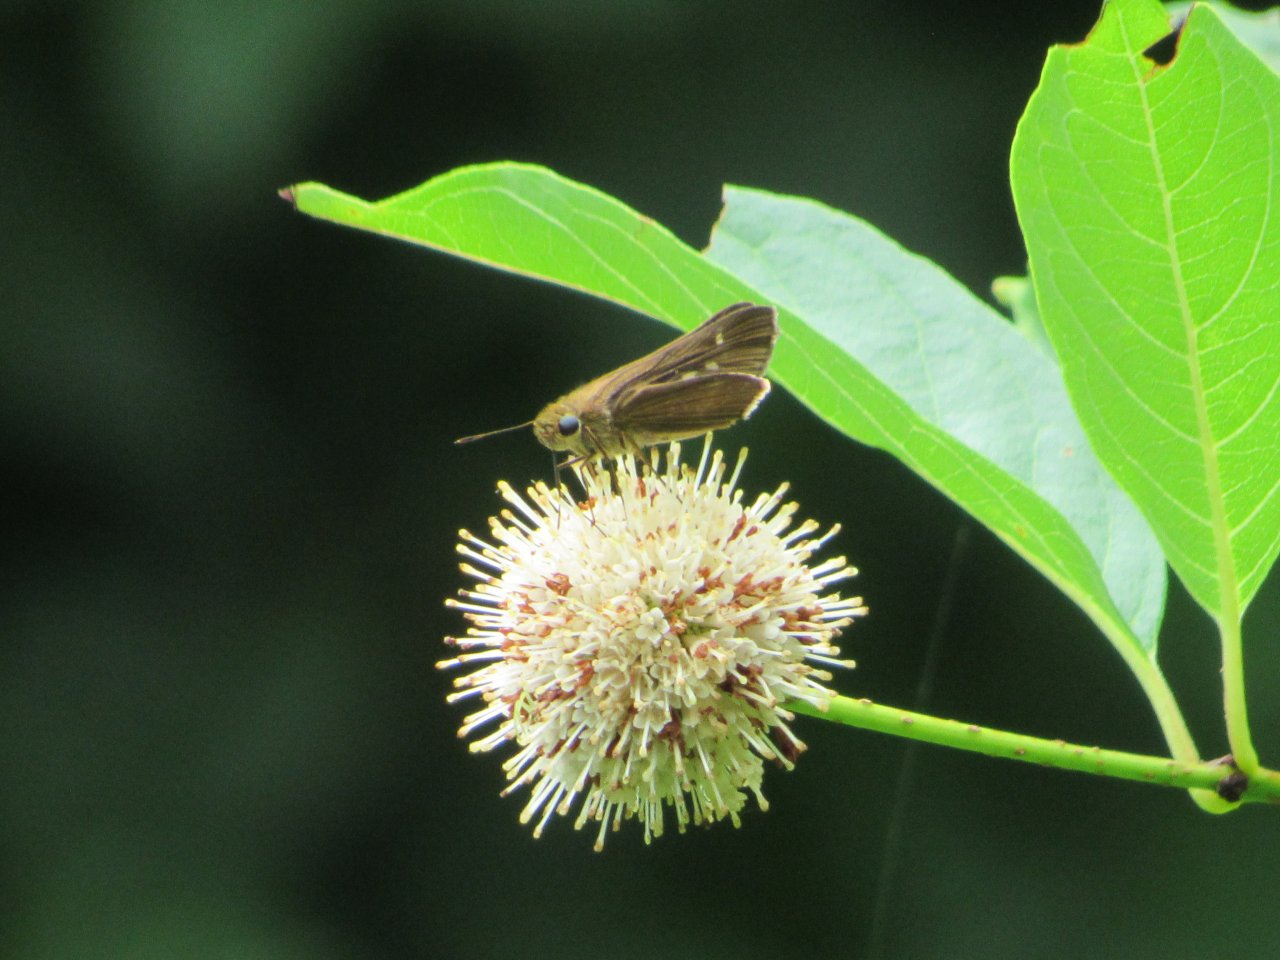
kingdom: Animalia
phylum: Arthropoda
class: Insecta
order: Lepidoptera
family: Hesperiidae
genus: Panoquina
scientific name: Panoquina ocola
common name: Ocola Skipper
